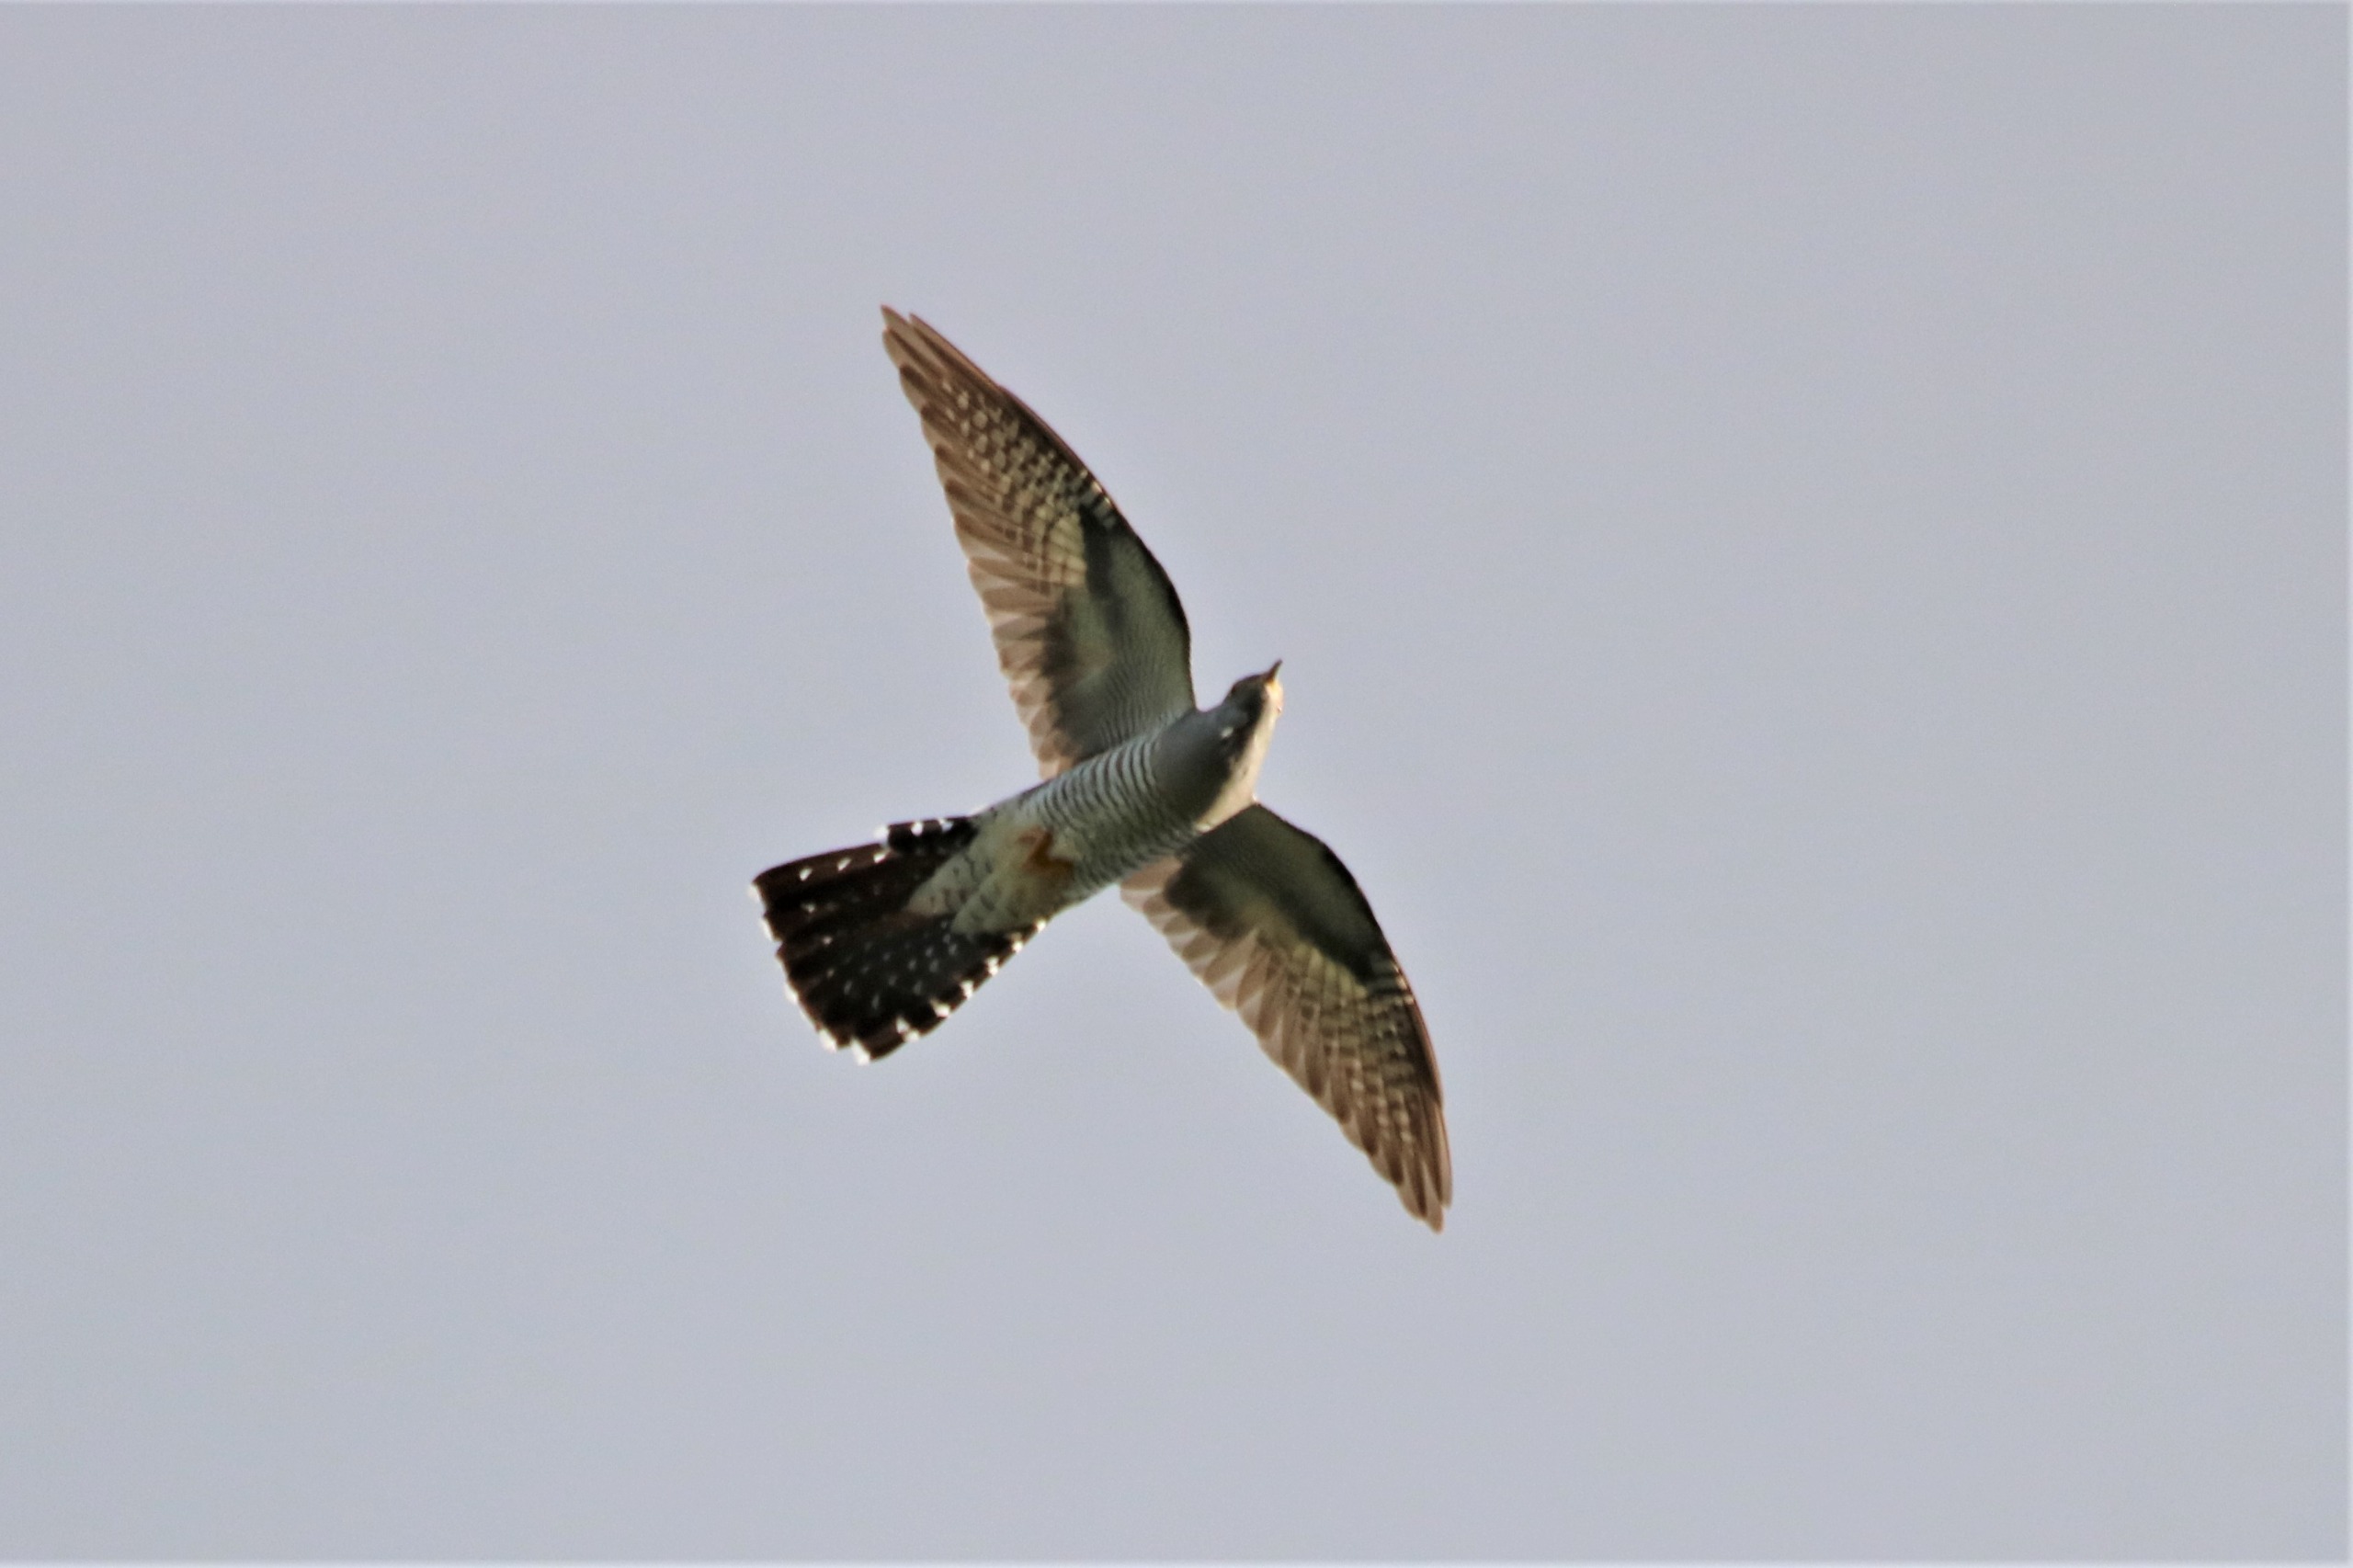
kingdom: Animalia
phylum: Chordata
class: Aves
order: Cuculiformes
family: Cuculidae
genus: Cuculus
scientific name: Cuculus canorus
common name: Gøg
